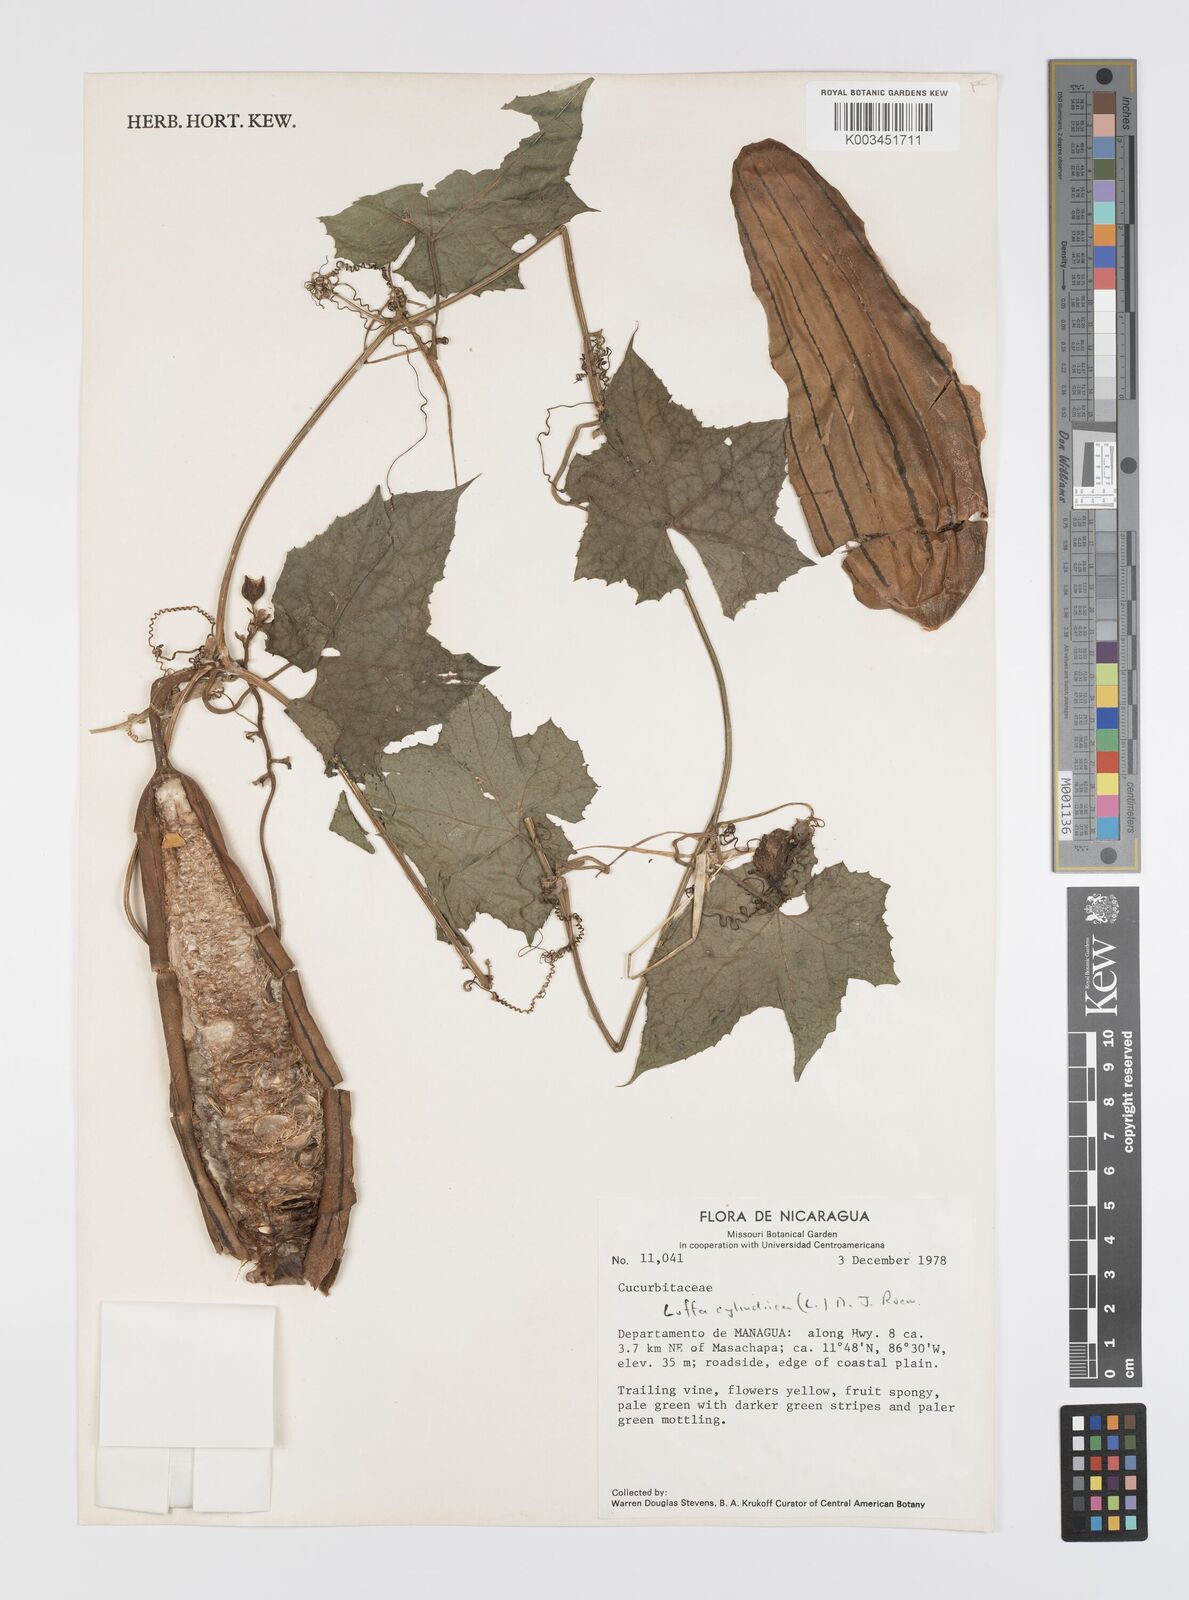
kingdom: Plantae
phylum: Tracheophyta
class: Magnoliopsida
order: Cucurbitales
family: Cucurbitaceae
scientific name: Cucurbitaceae
